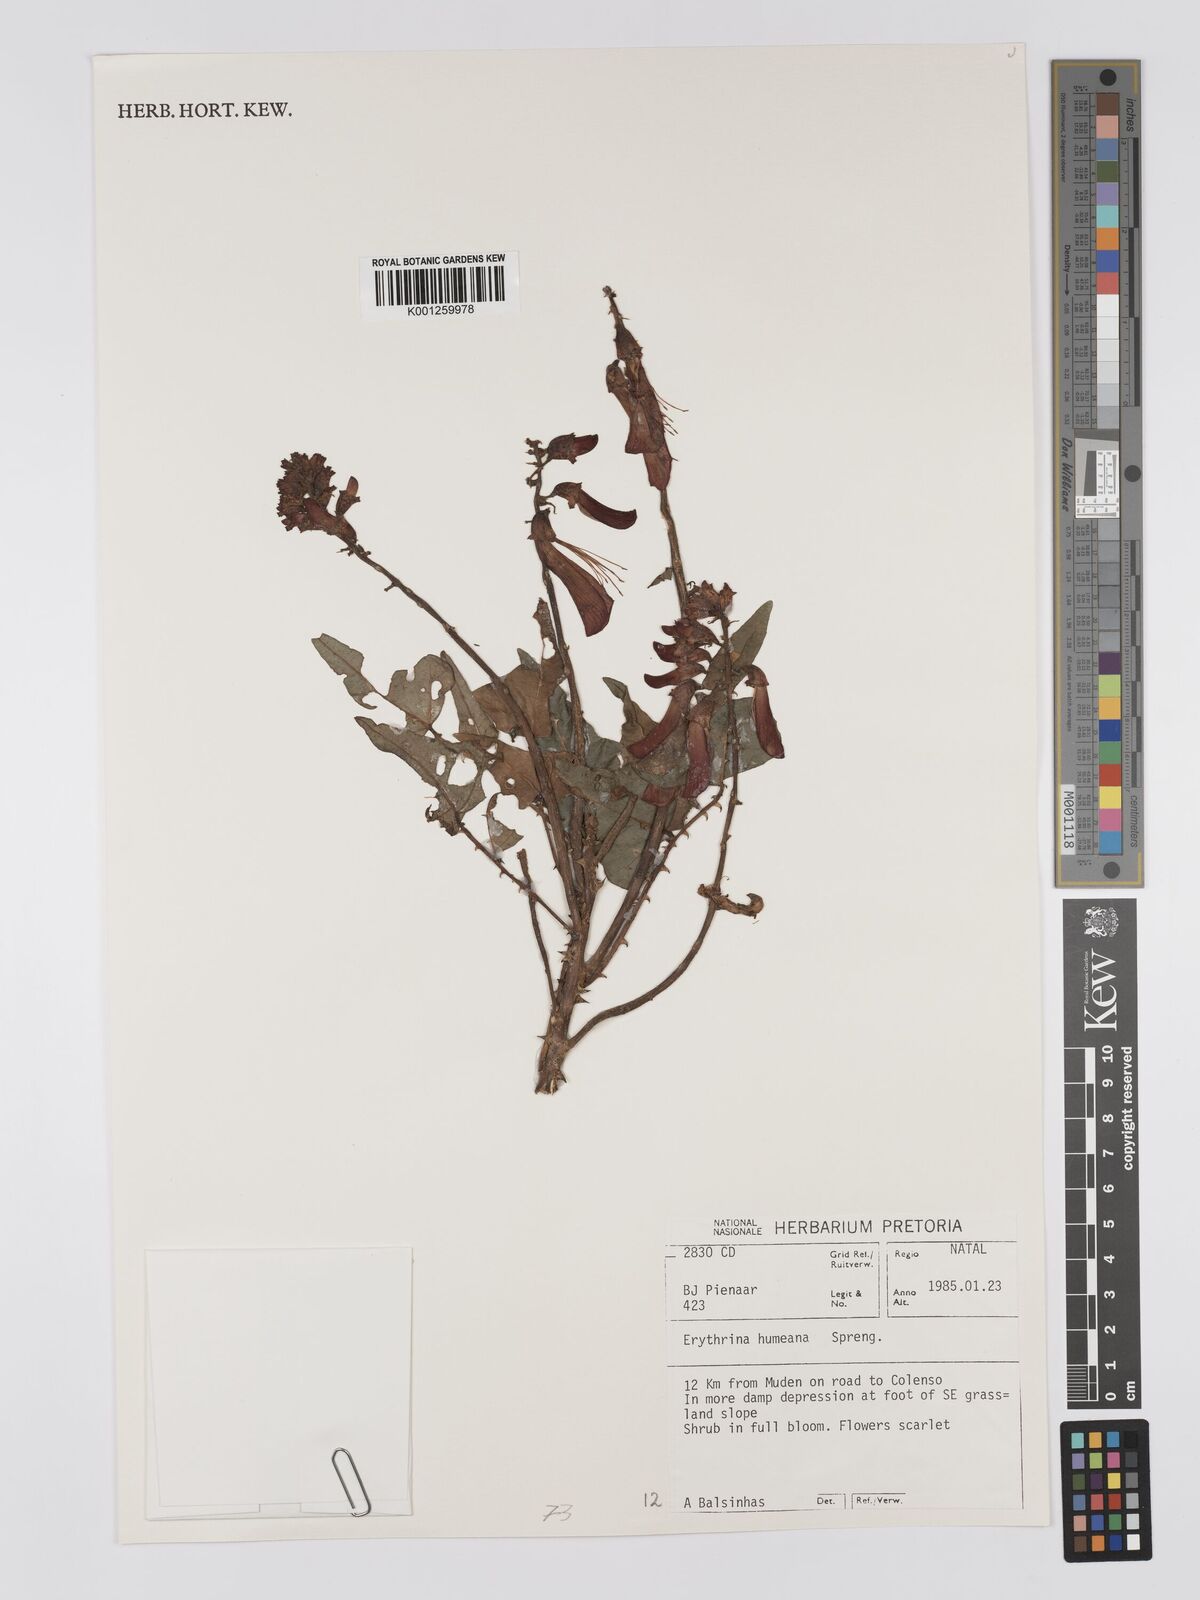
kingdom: Plantae
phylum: Tracheophyta
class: Magnoliopsida
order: Fabales
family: Fabaceae
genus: Erythrina
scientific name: Erythrina humeana
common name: Dwarf coral tree
